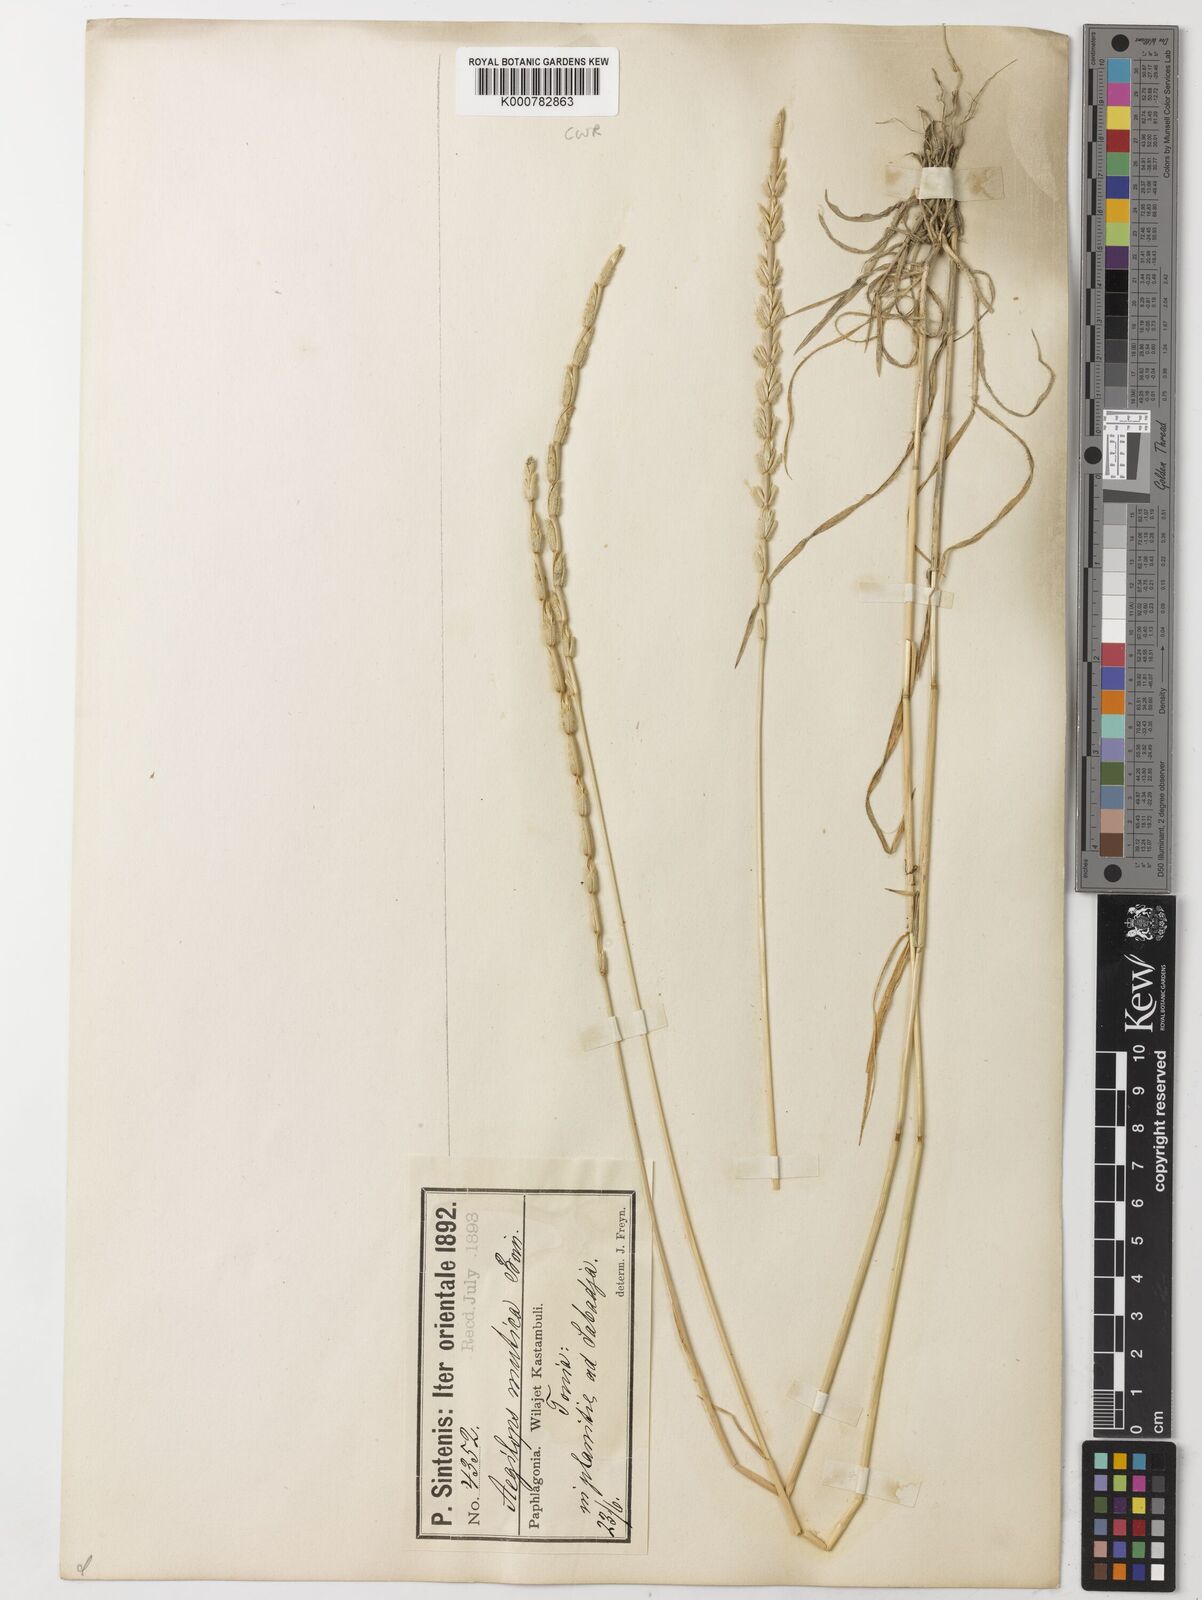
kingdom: Plantae
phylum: Tracheophyta
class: Liliopsida
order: Poales
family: Poaceae
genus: Aegilops
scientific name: Aegilops mutica
